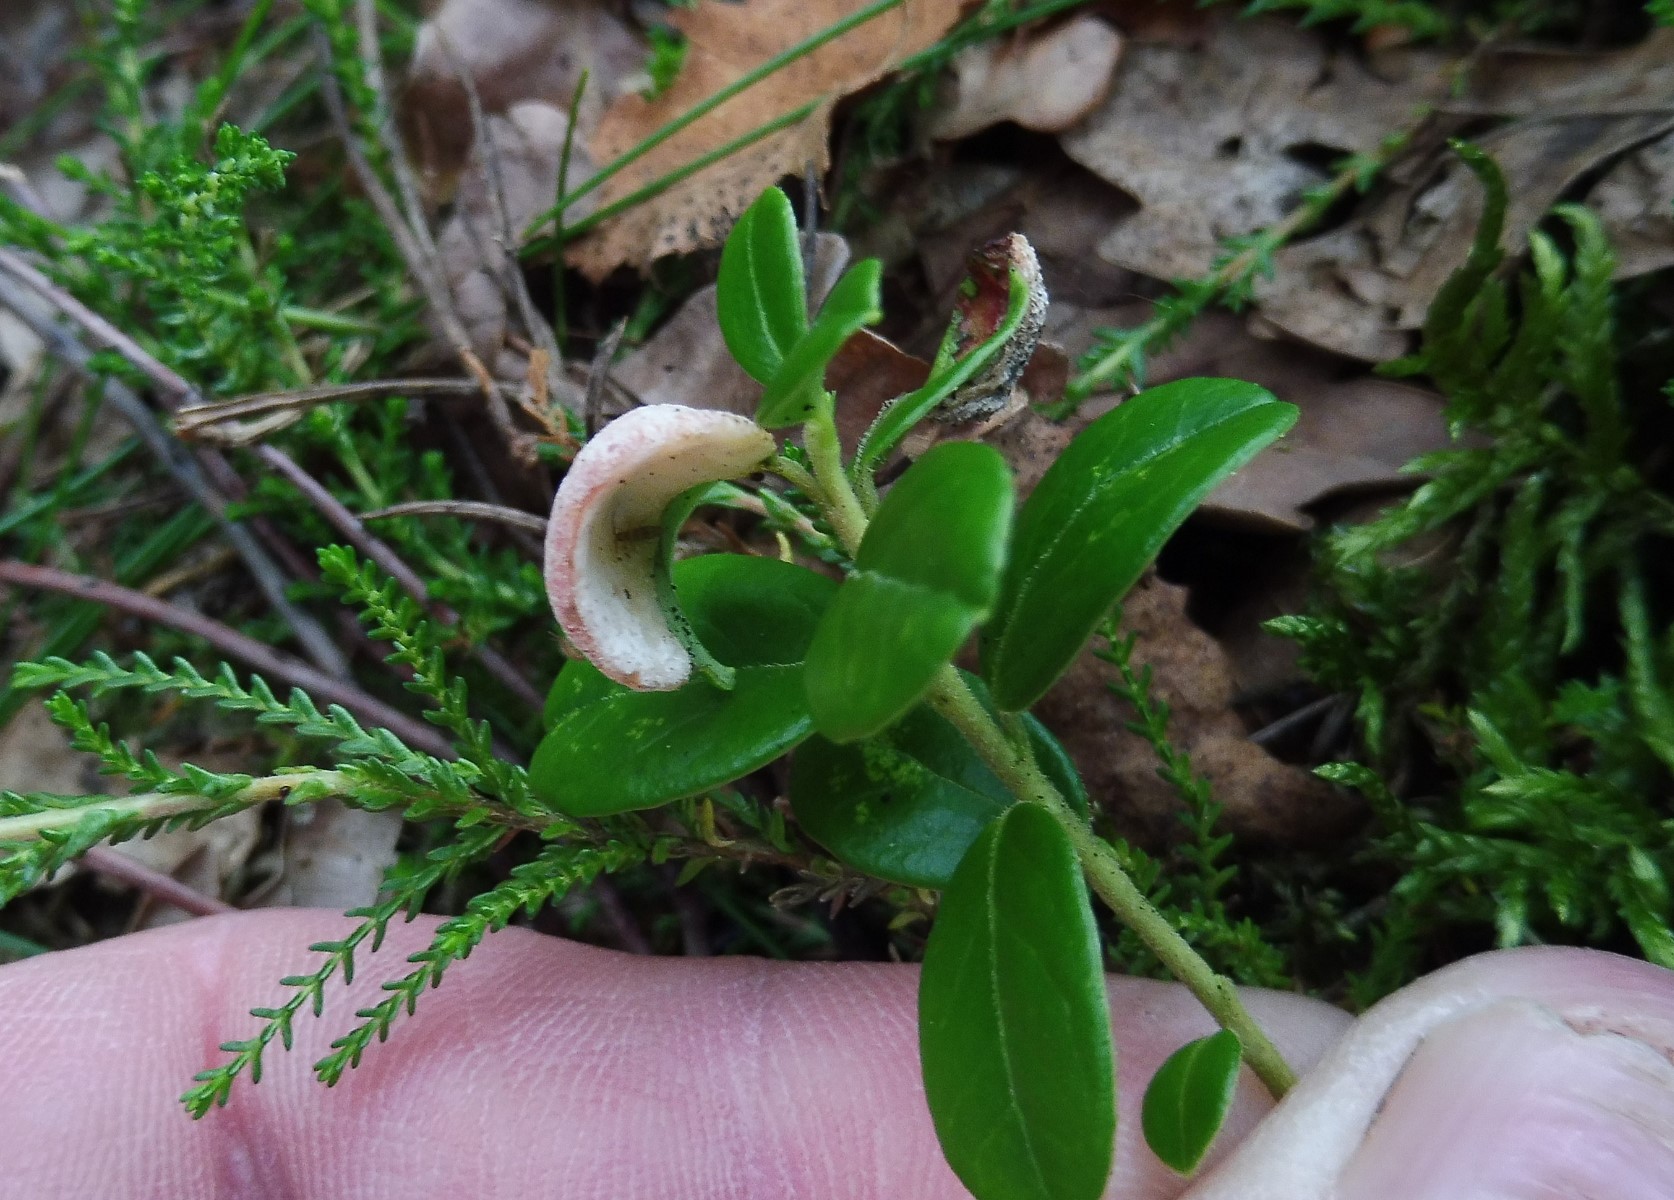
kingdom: Fungi
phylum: Basidiomycota
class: Exobasidiomycetes
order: Exobasidiales
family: Exobasidiaceae
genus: Exobasidium
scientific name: Exobasidium vaccinii
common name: tyttebærblad-bøllesvamp
